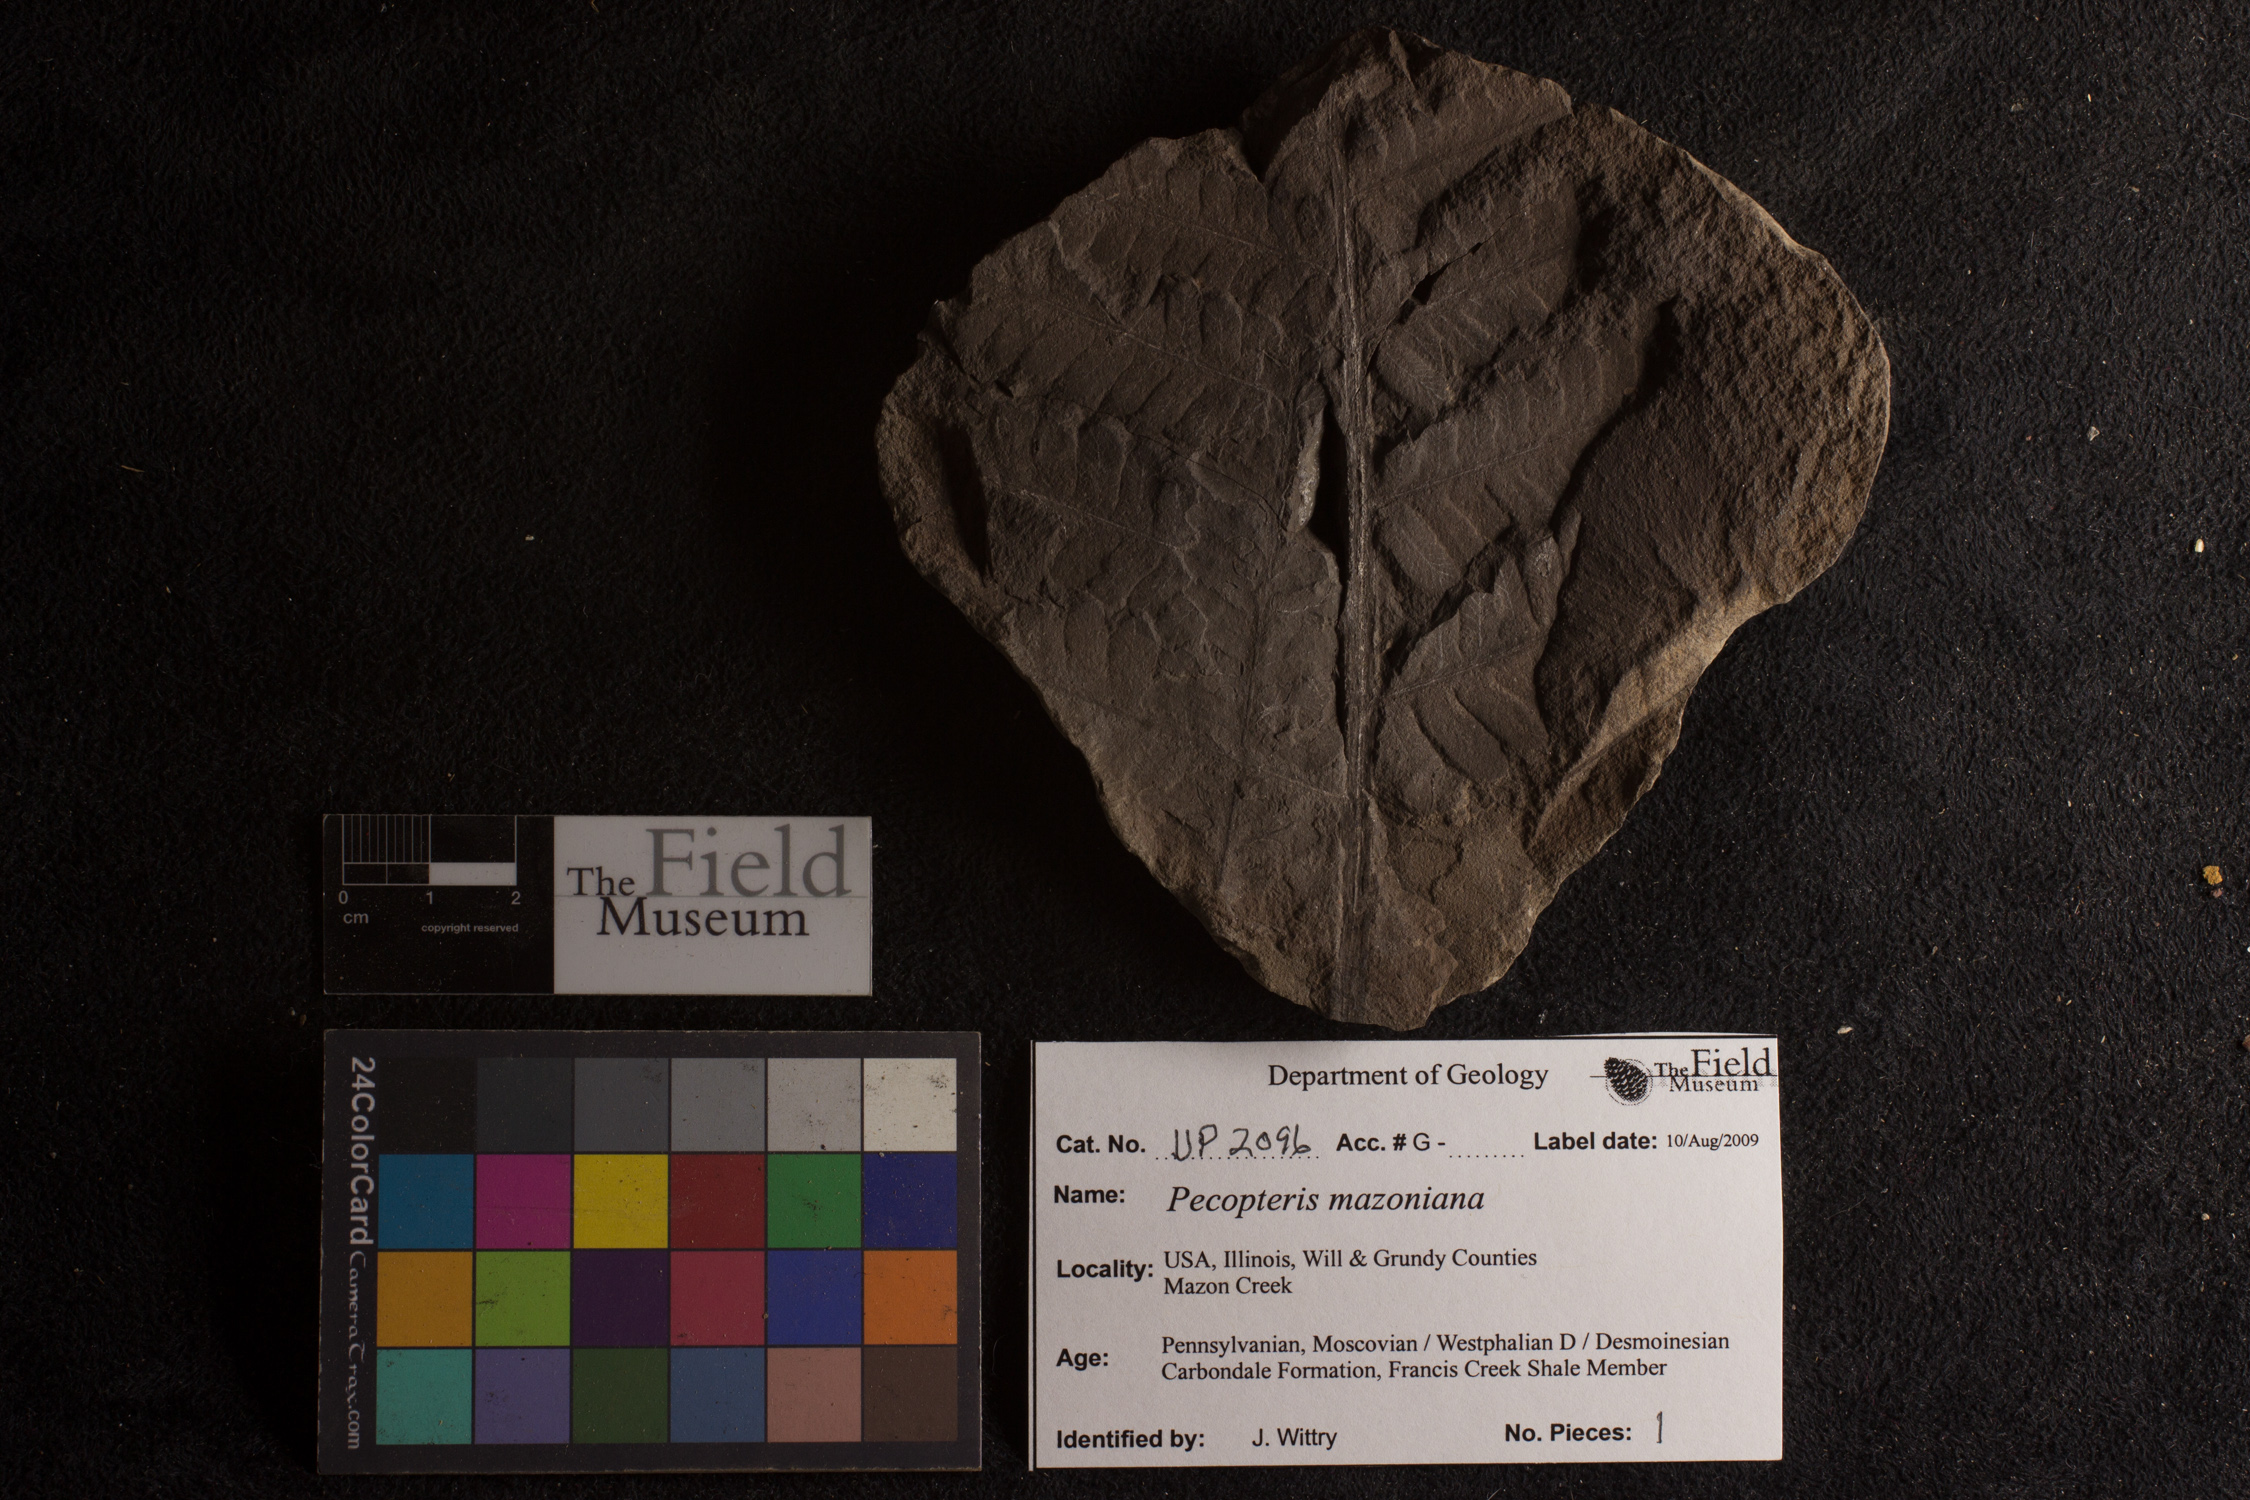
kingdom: Plantae
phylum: Tracheophyta
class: Polypodiopsida
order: Marattiales
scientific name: Marattiales
